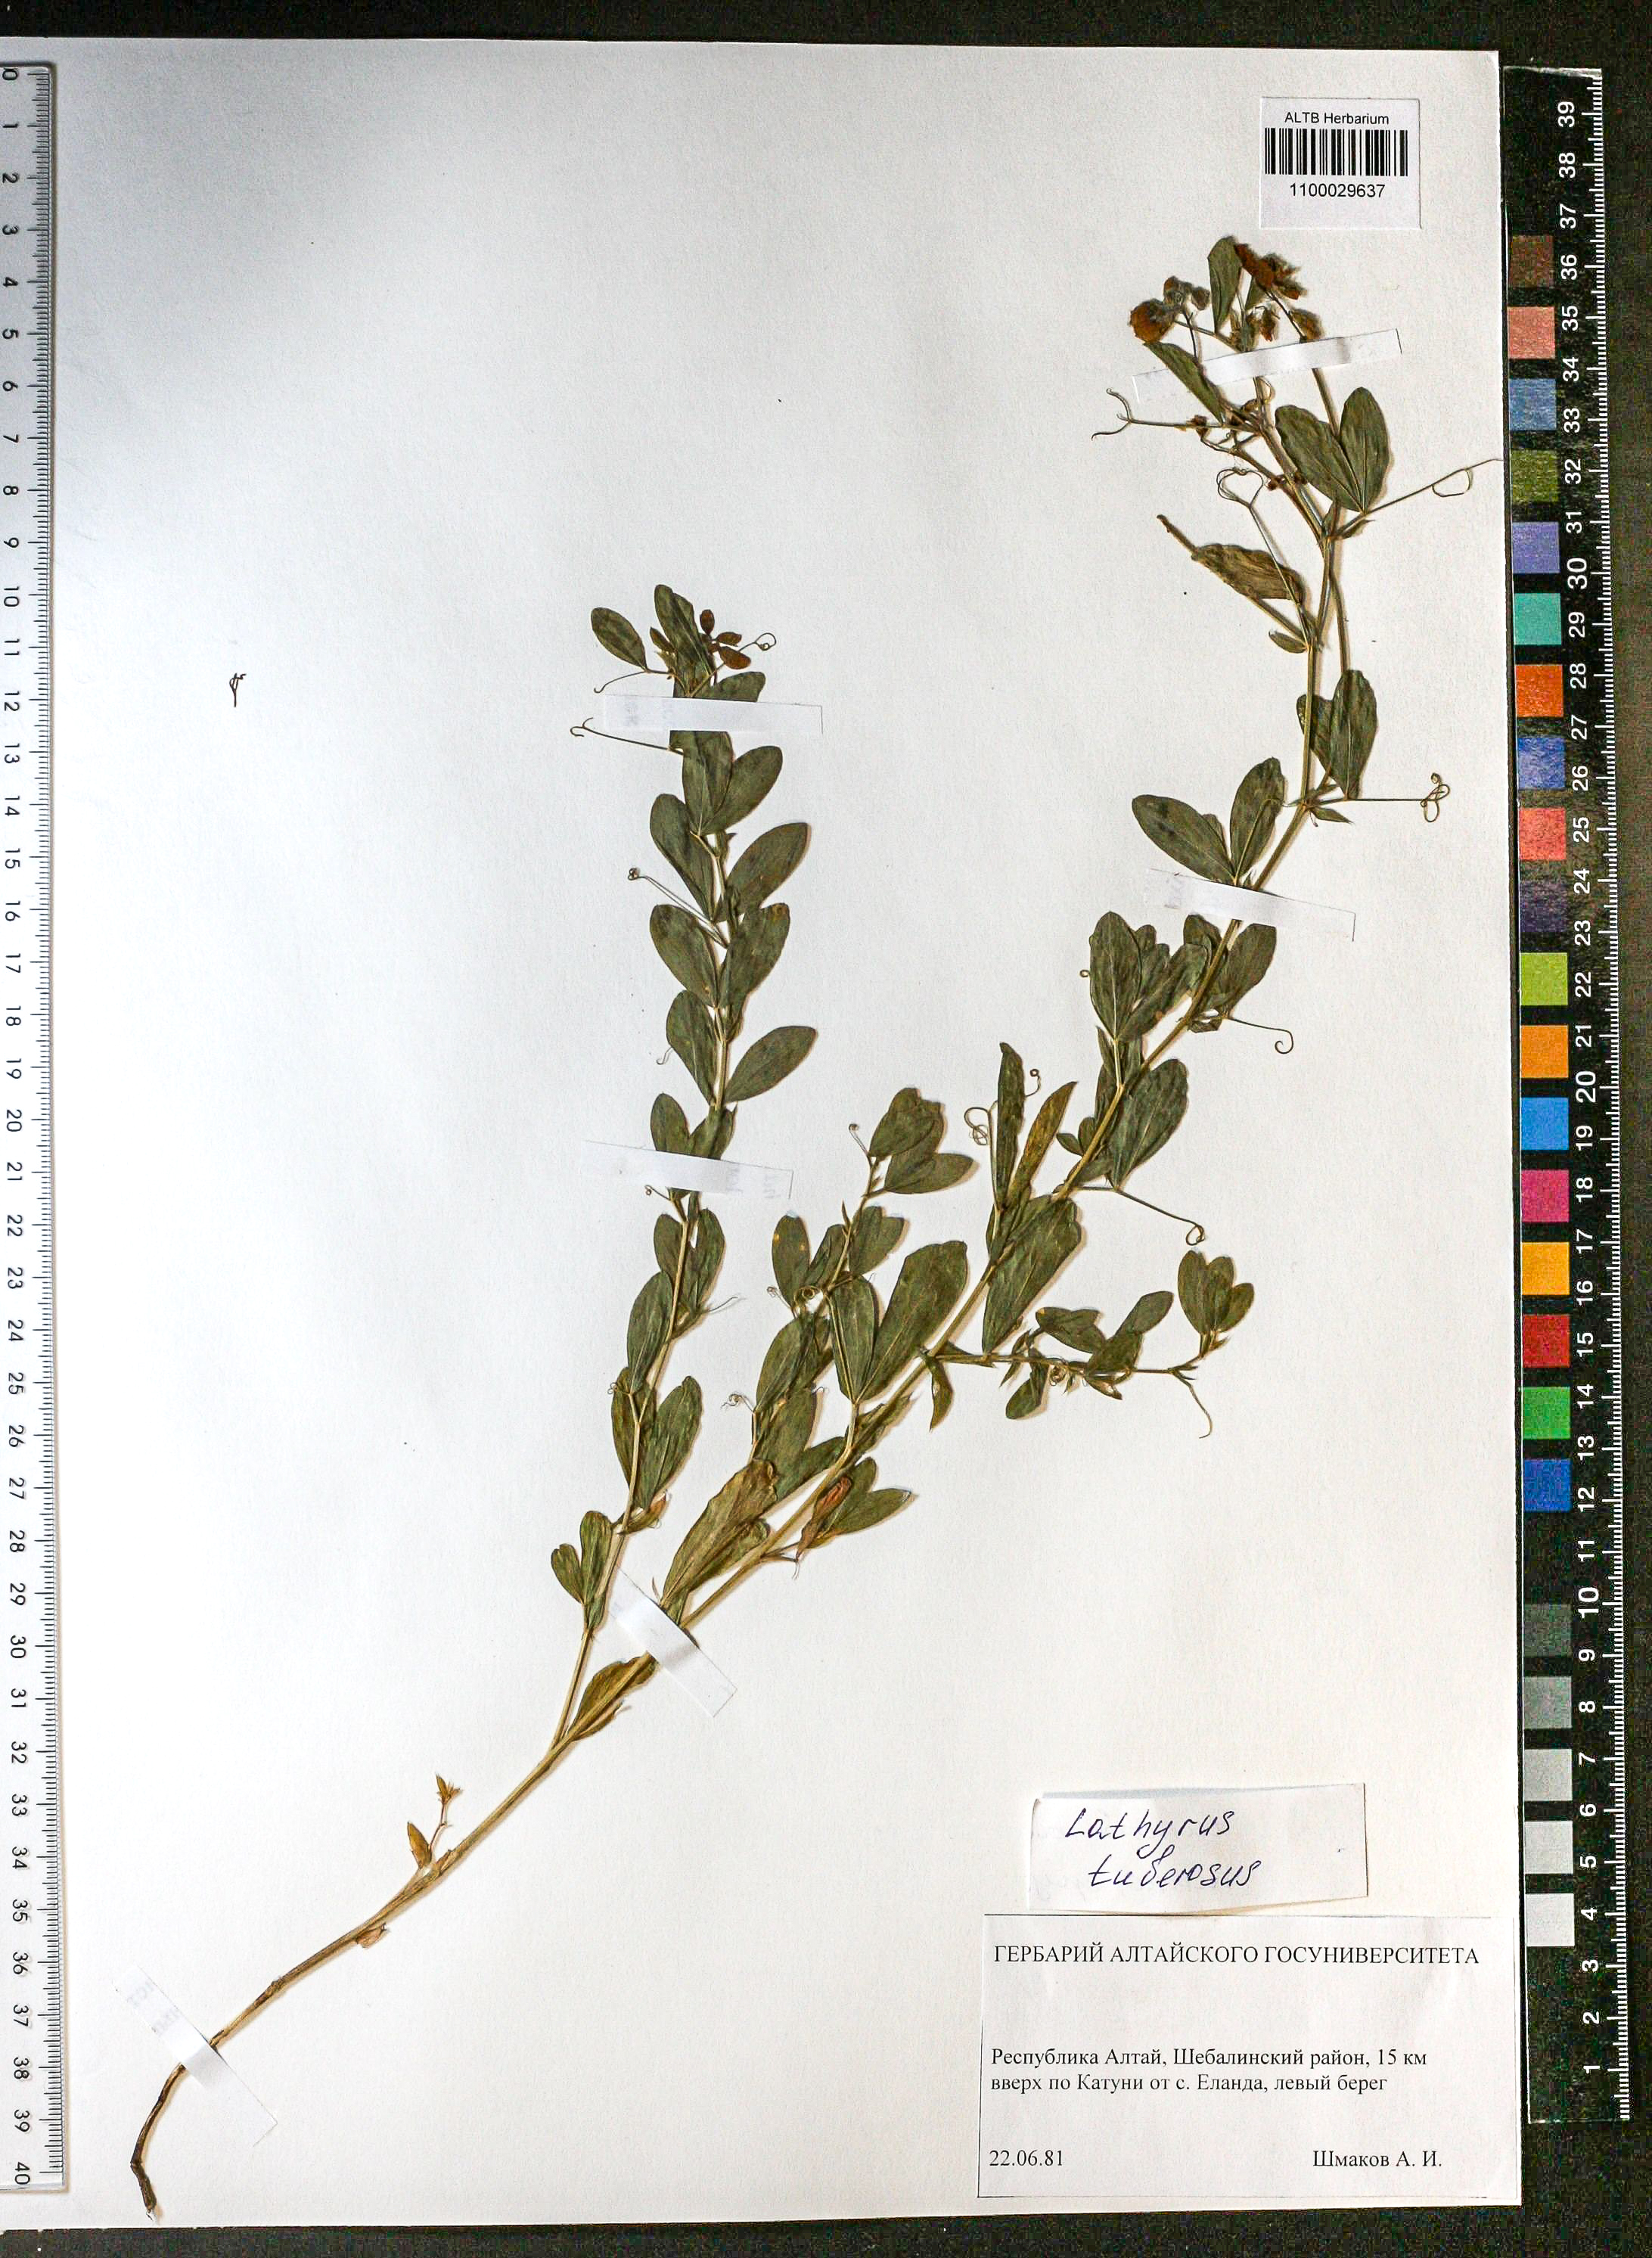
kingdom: Plantae
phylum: Tracheophyta
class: Magnoliopsida
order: Fabales
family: Fabaceae
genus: Lathyrus
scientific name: Lathyrus tuberosus
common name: Tuberous pea
